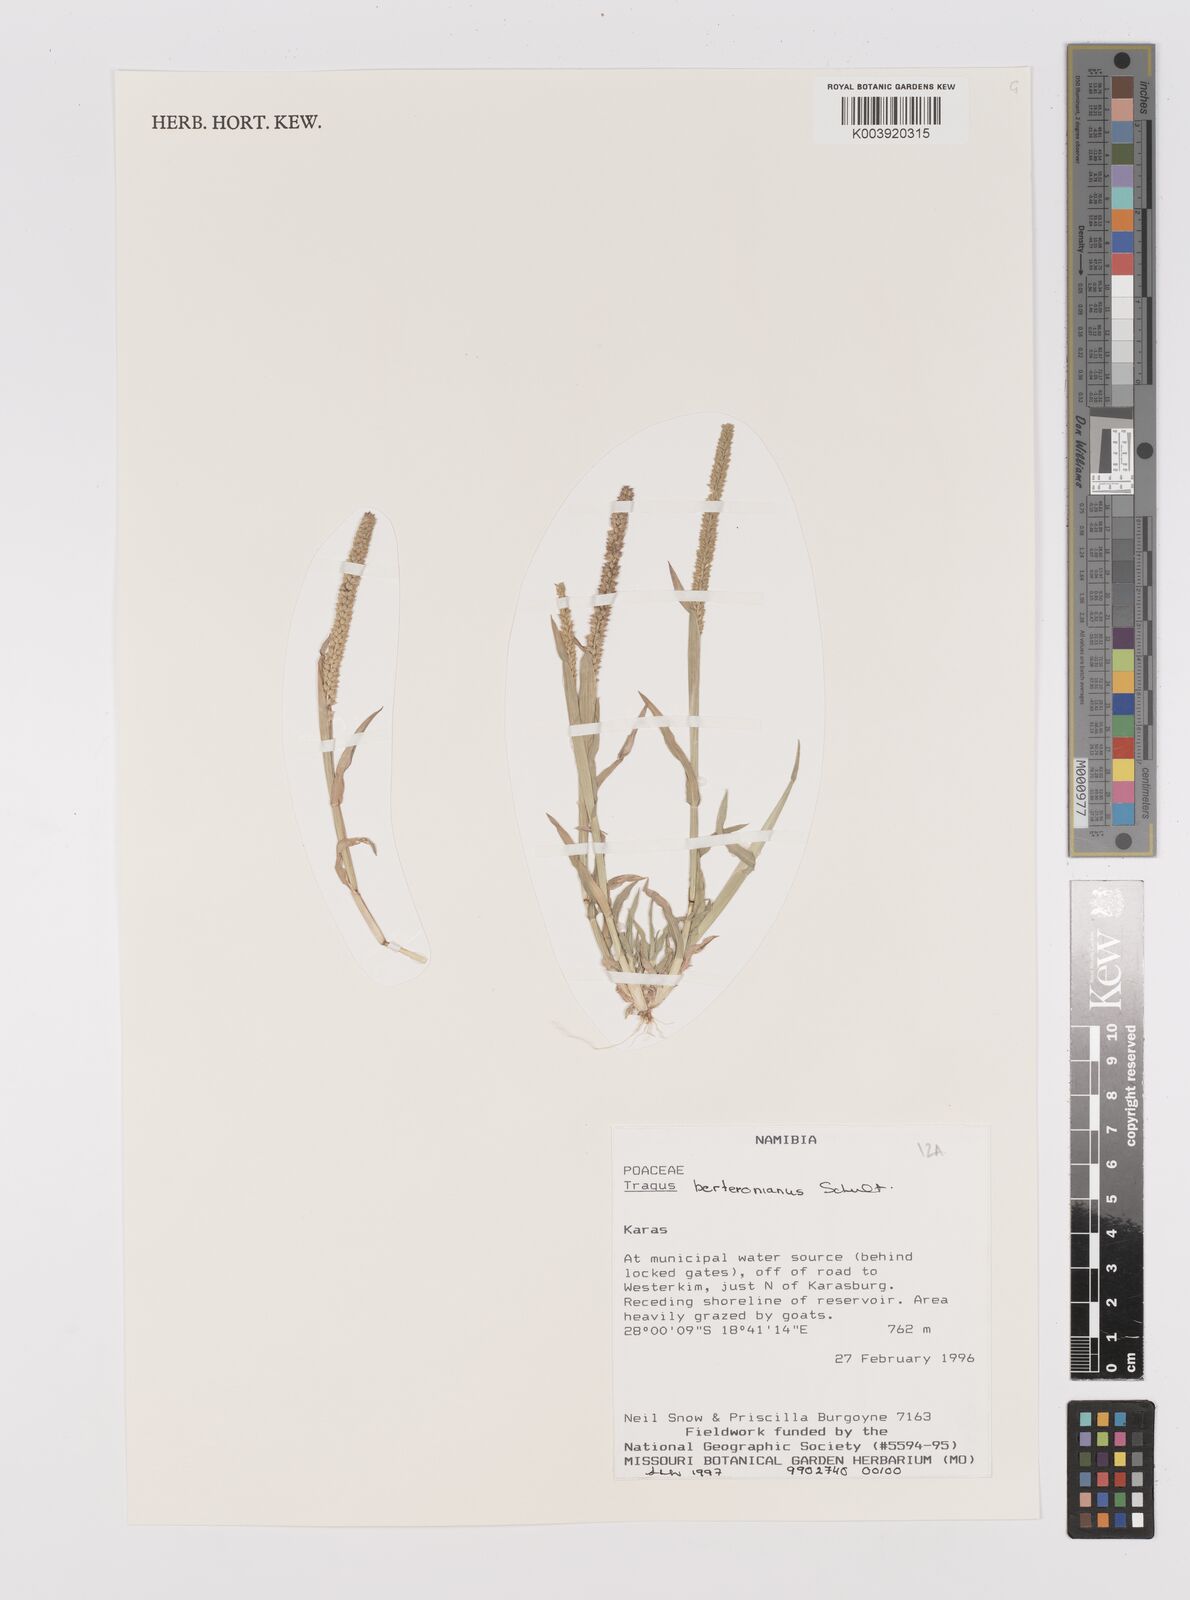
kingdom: Plantae
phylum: Tracheophyta
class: Liliopsida
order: Poales
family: Poaceae
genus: Tragus
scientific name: Tragus berteronianus
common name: African bur-grass
